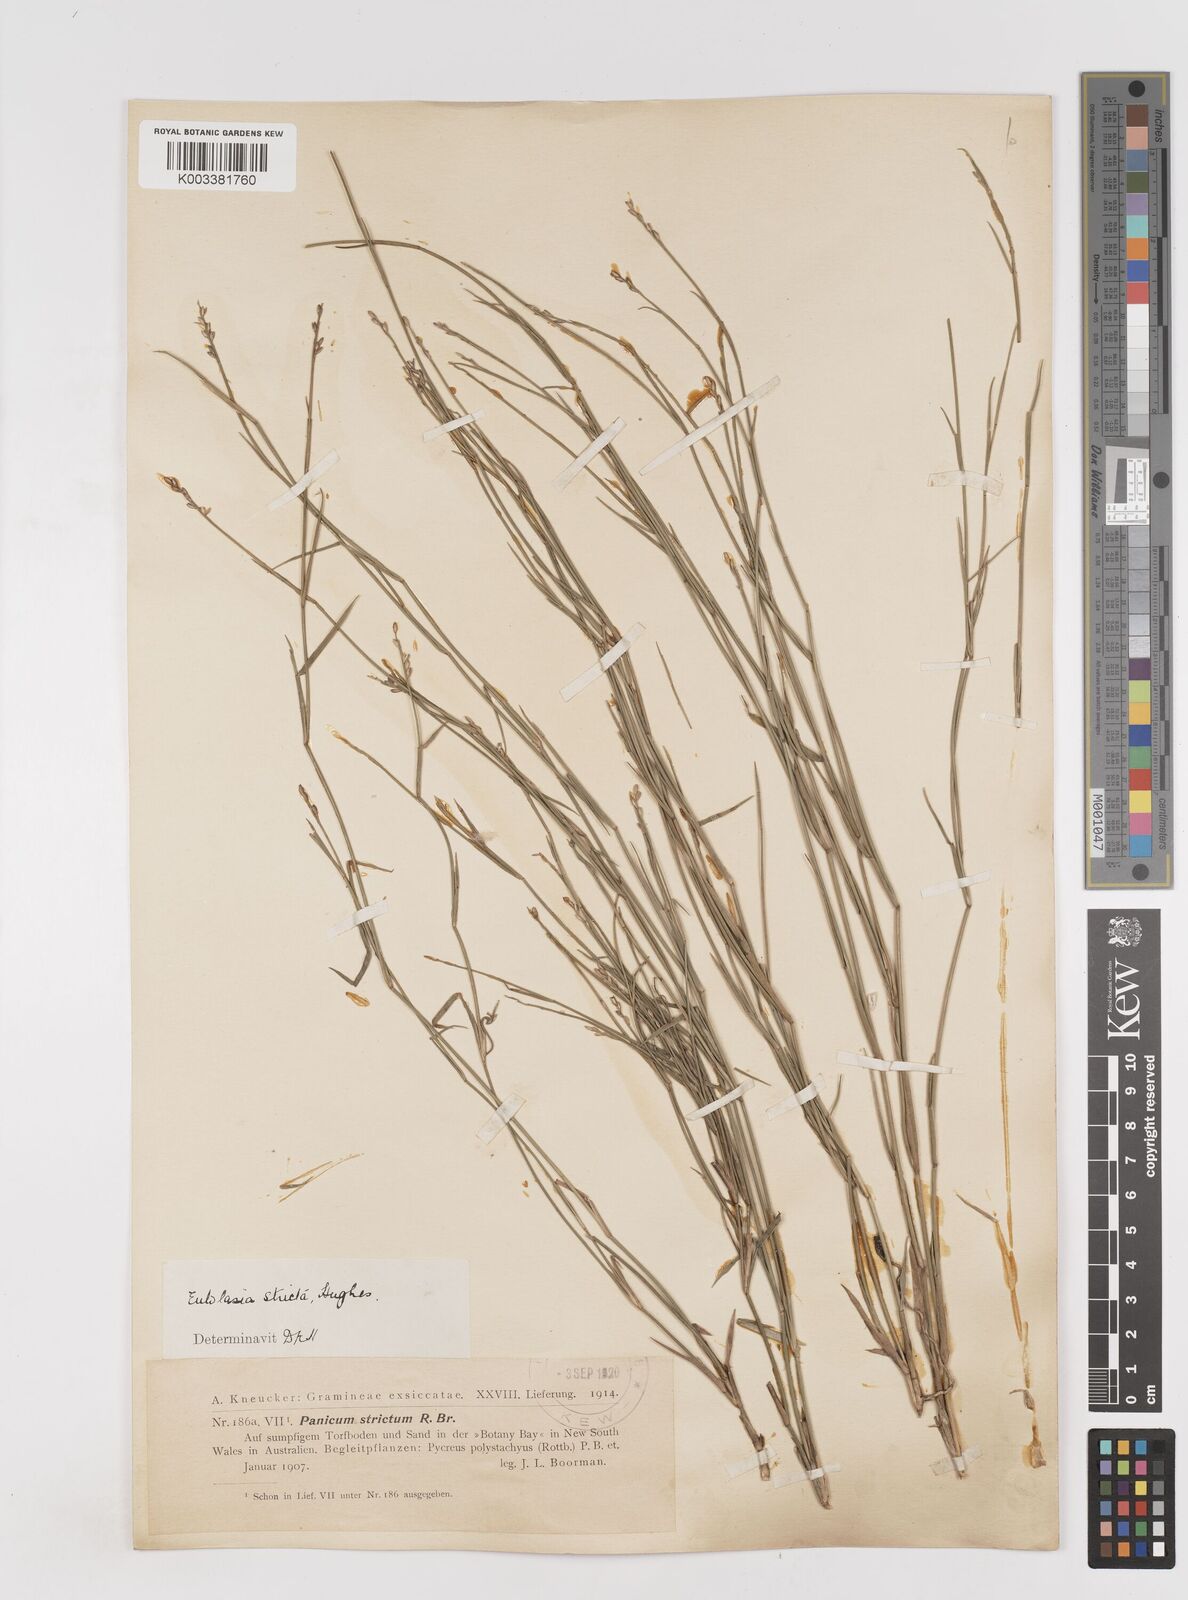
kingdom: Plantae
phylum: Tracheophyta
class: Liliopsida
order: Poales
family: Poaceae
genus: Entolasia
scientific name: Entolasia stricta
